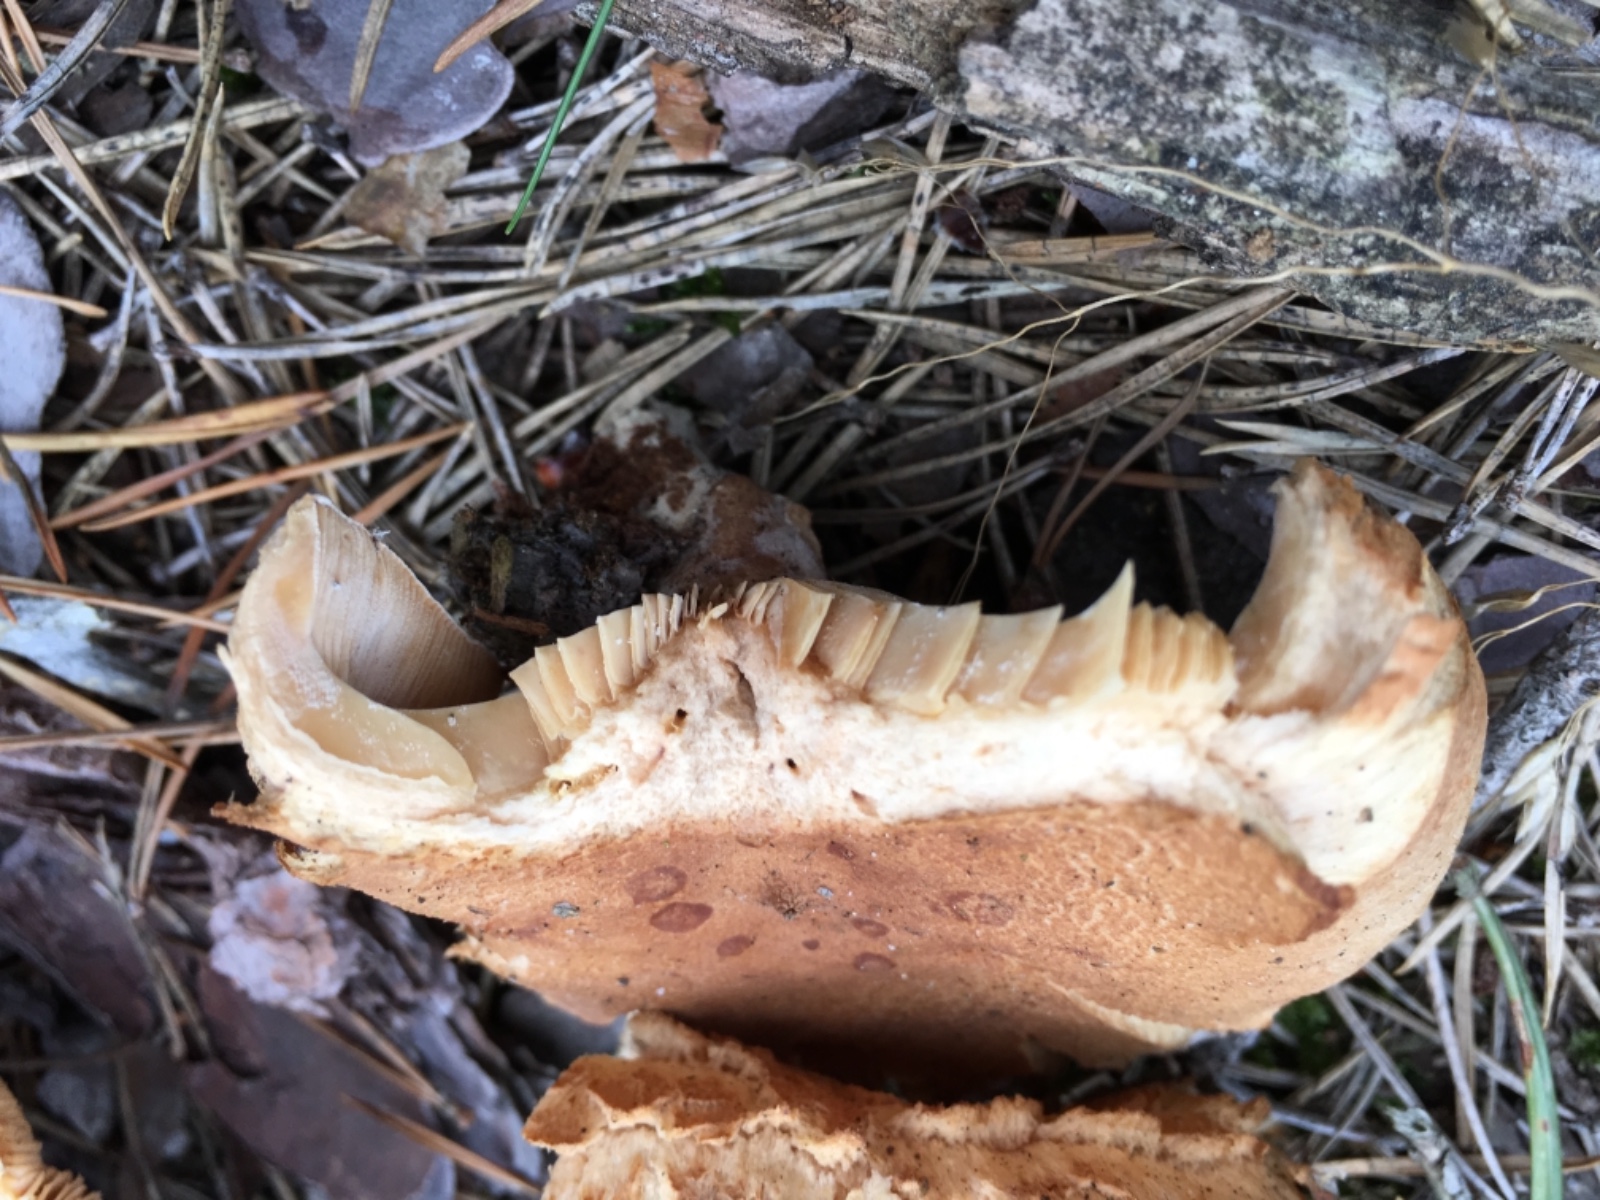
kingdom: Fungi
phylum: Basidiomycota
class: Agaricomycetes
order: Russulales
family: Russulaceae
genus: Lactarius
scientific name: Lactarius helvus
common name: mose-mælkehat
